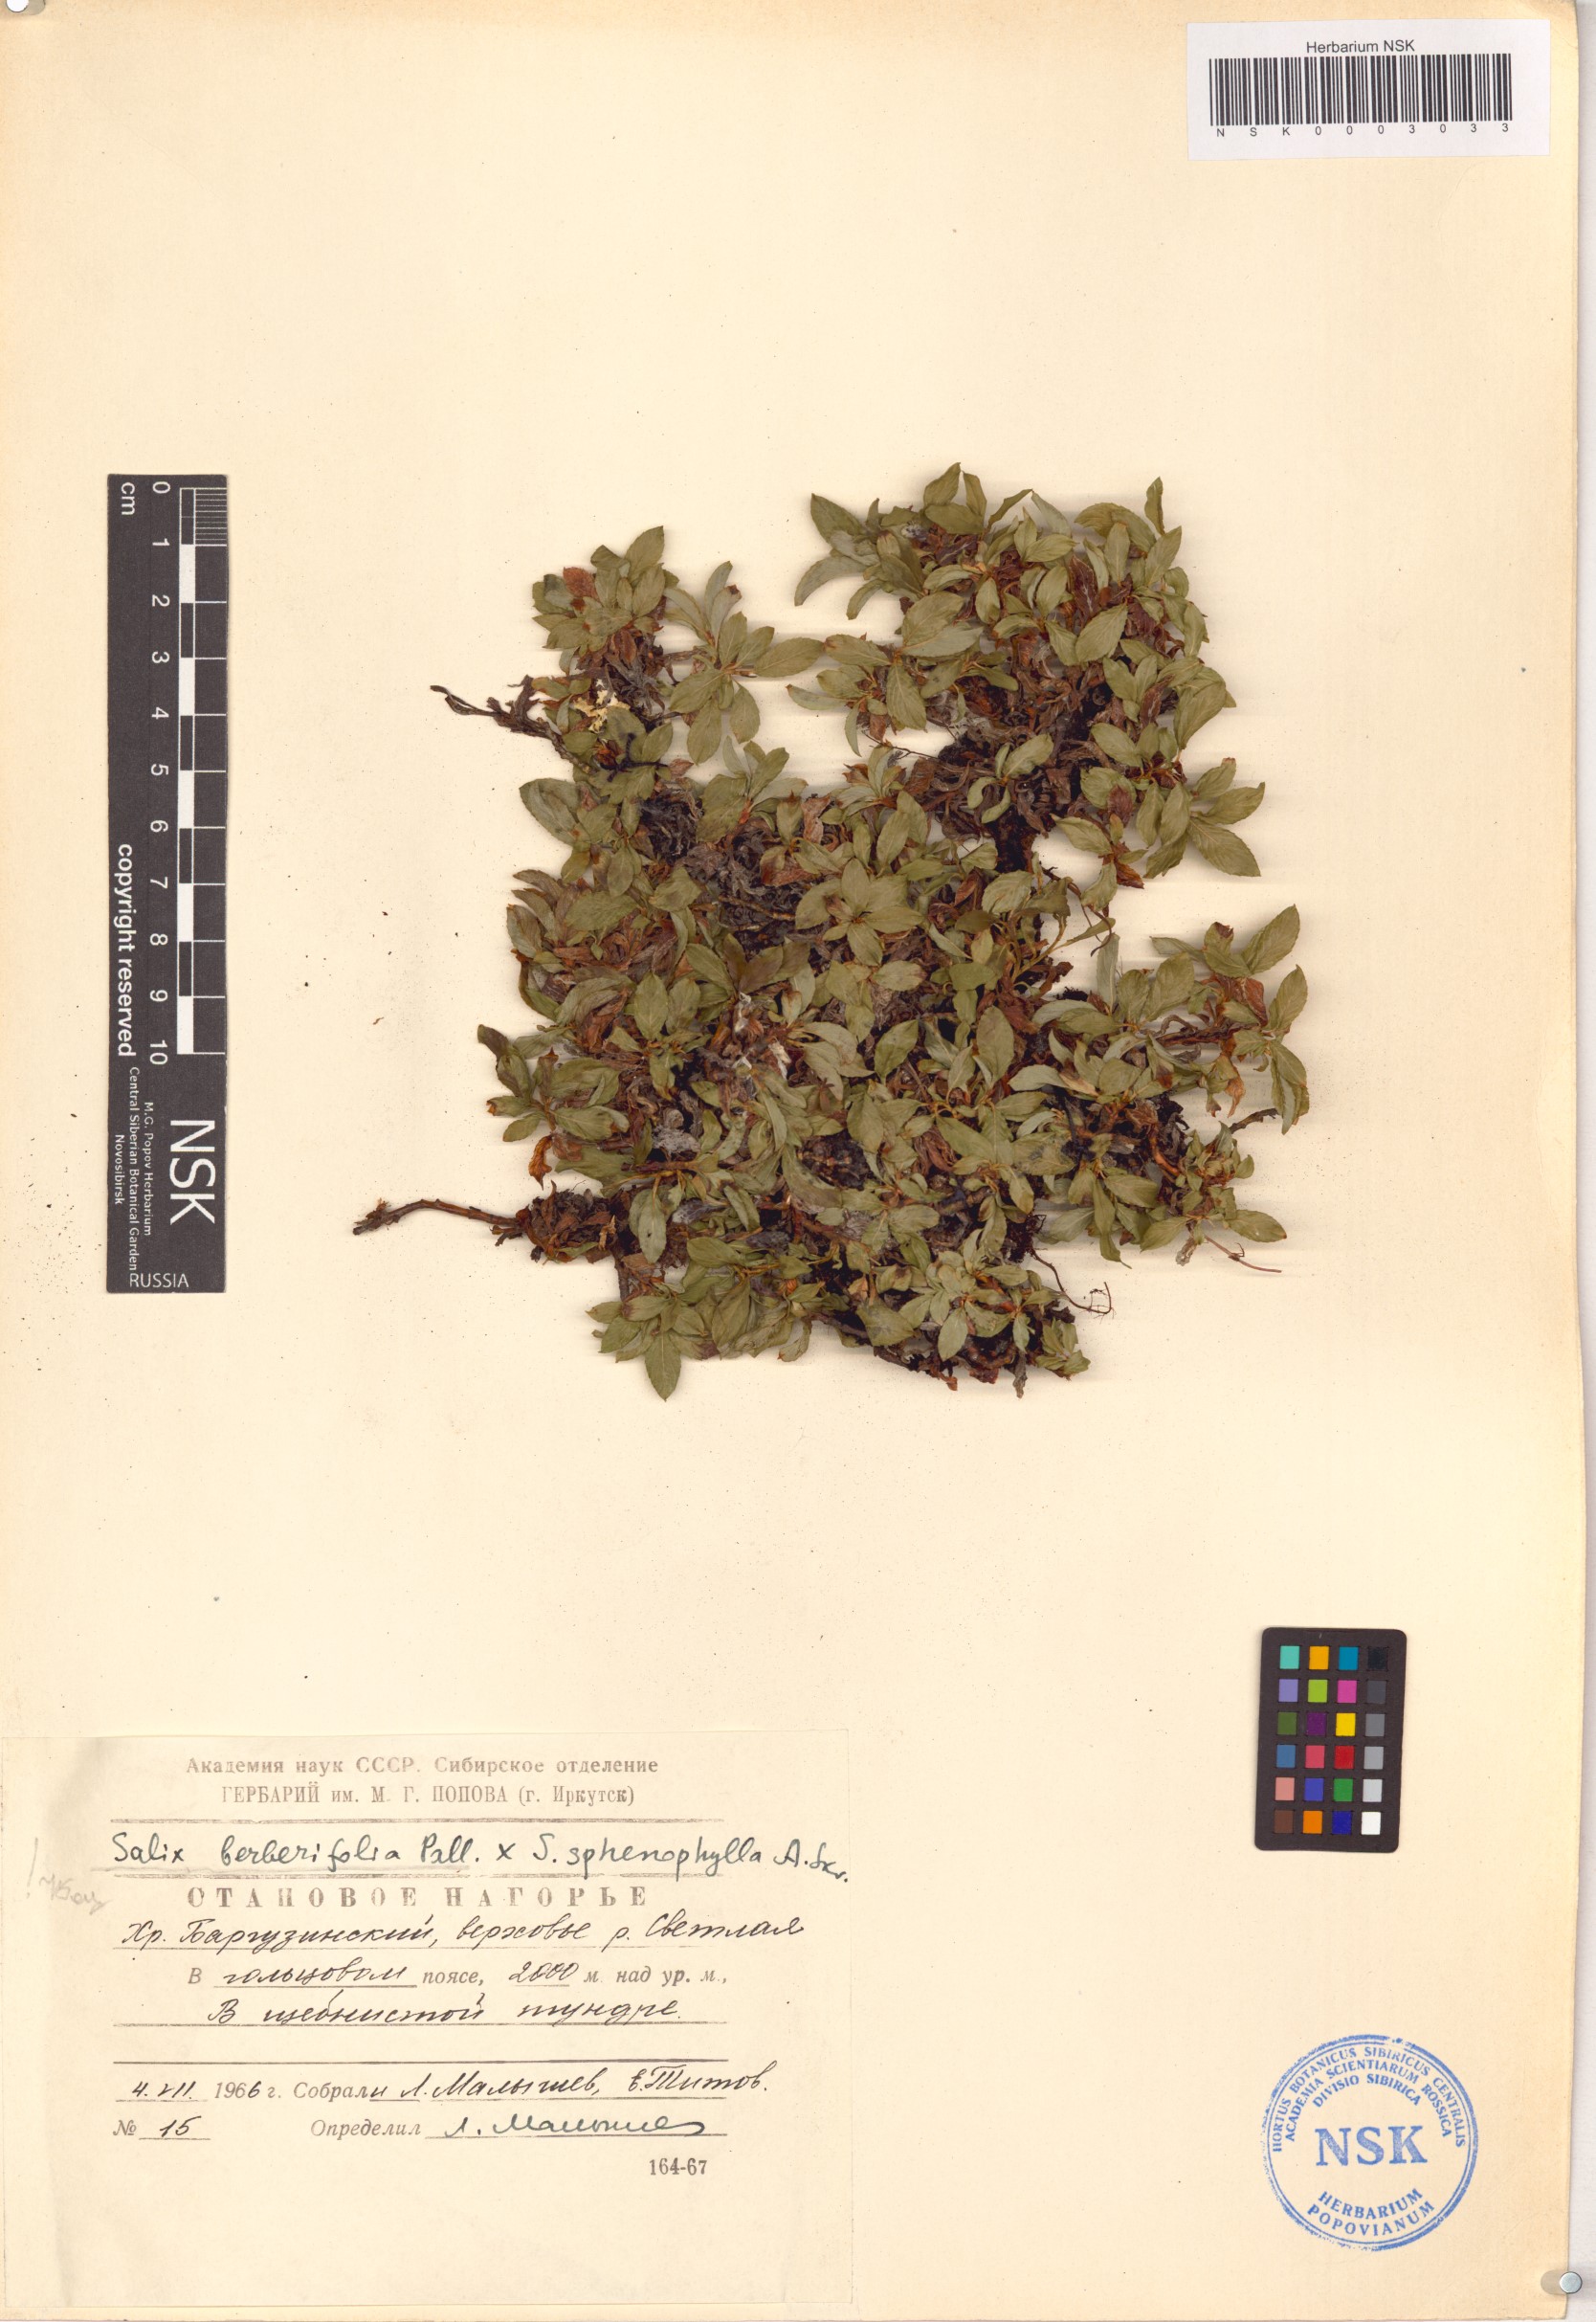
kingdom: Plantae
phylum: Tracheophyta
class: Magnoliopsida
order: Malpighiales
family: Salicaceae
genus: Salix
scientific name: Salix berberifolia
